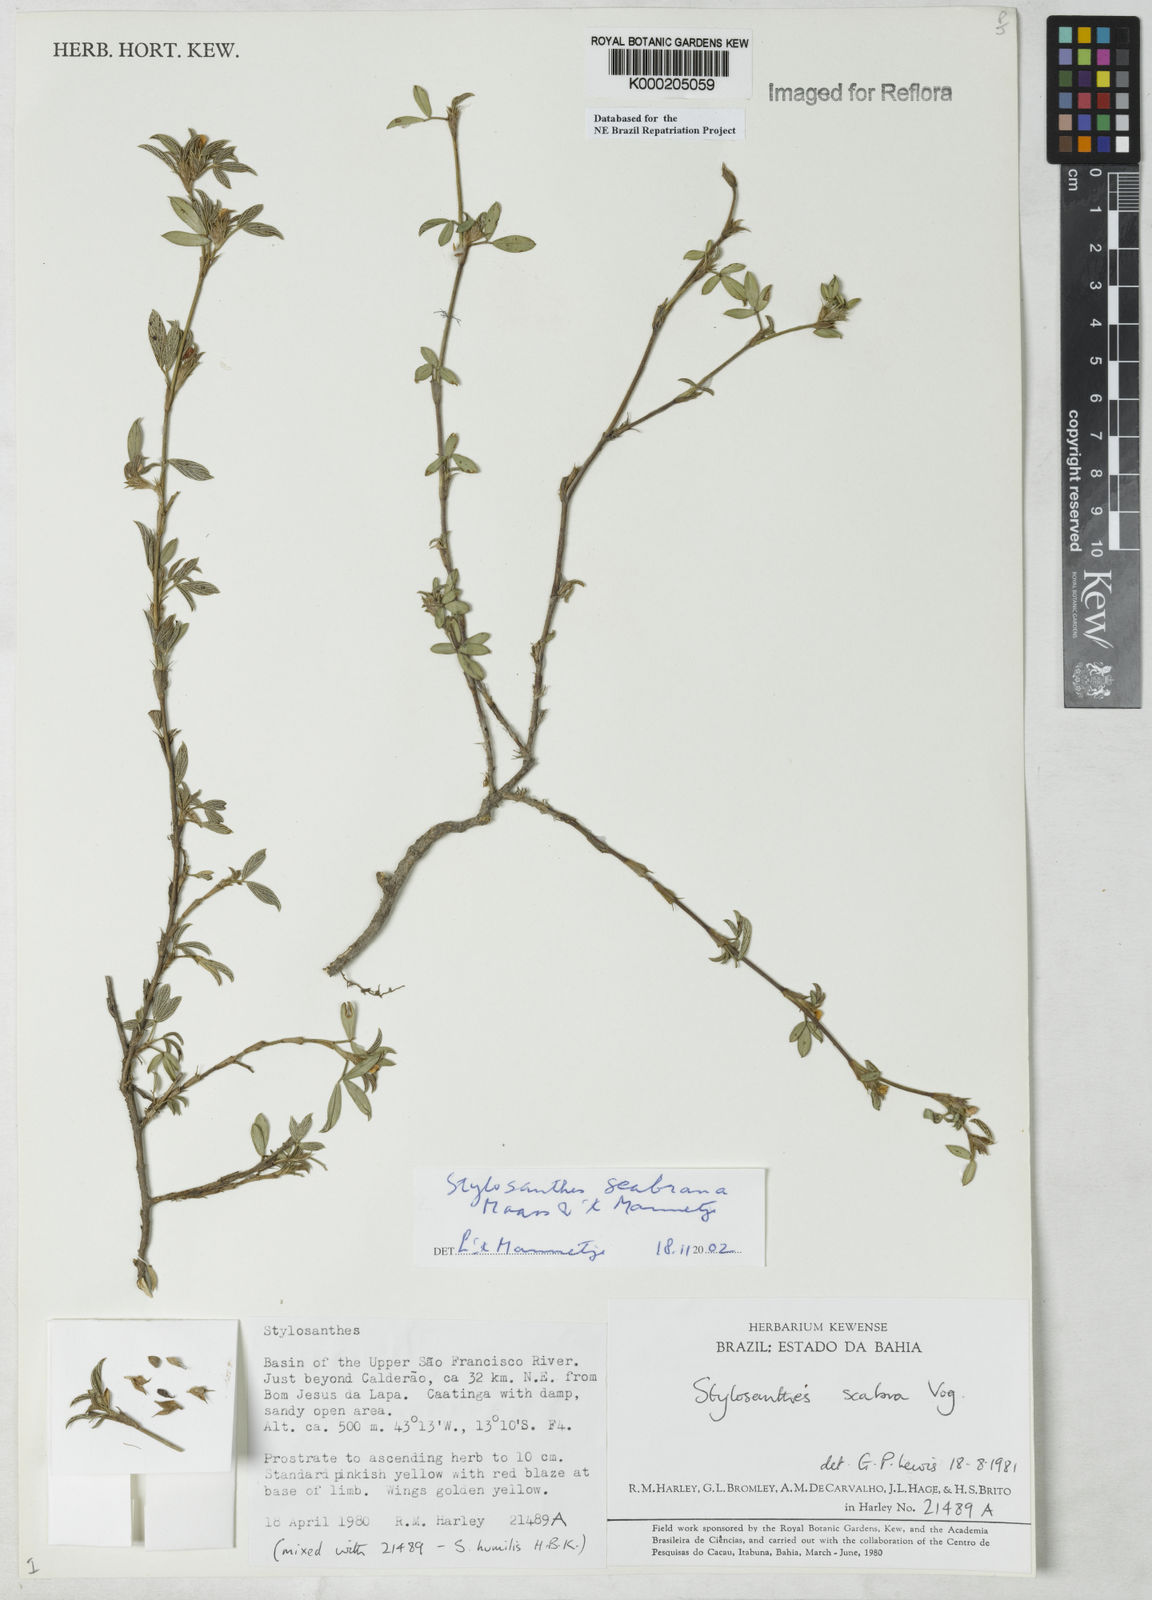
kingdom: Plantae
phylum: Tracheophyta
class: Magnoliopsida
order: Fabales
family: Fabaceae
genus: Stylosanthes
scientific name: Stylosanthes scabra
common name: Pencilflower
